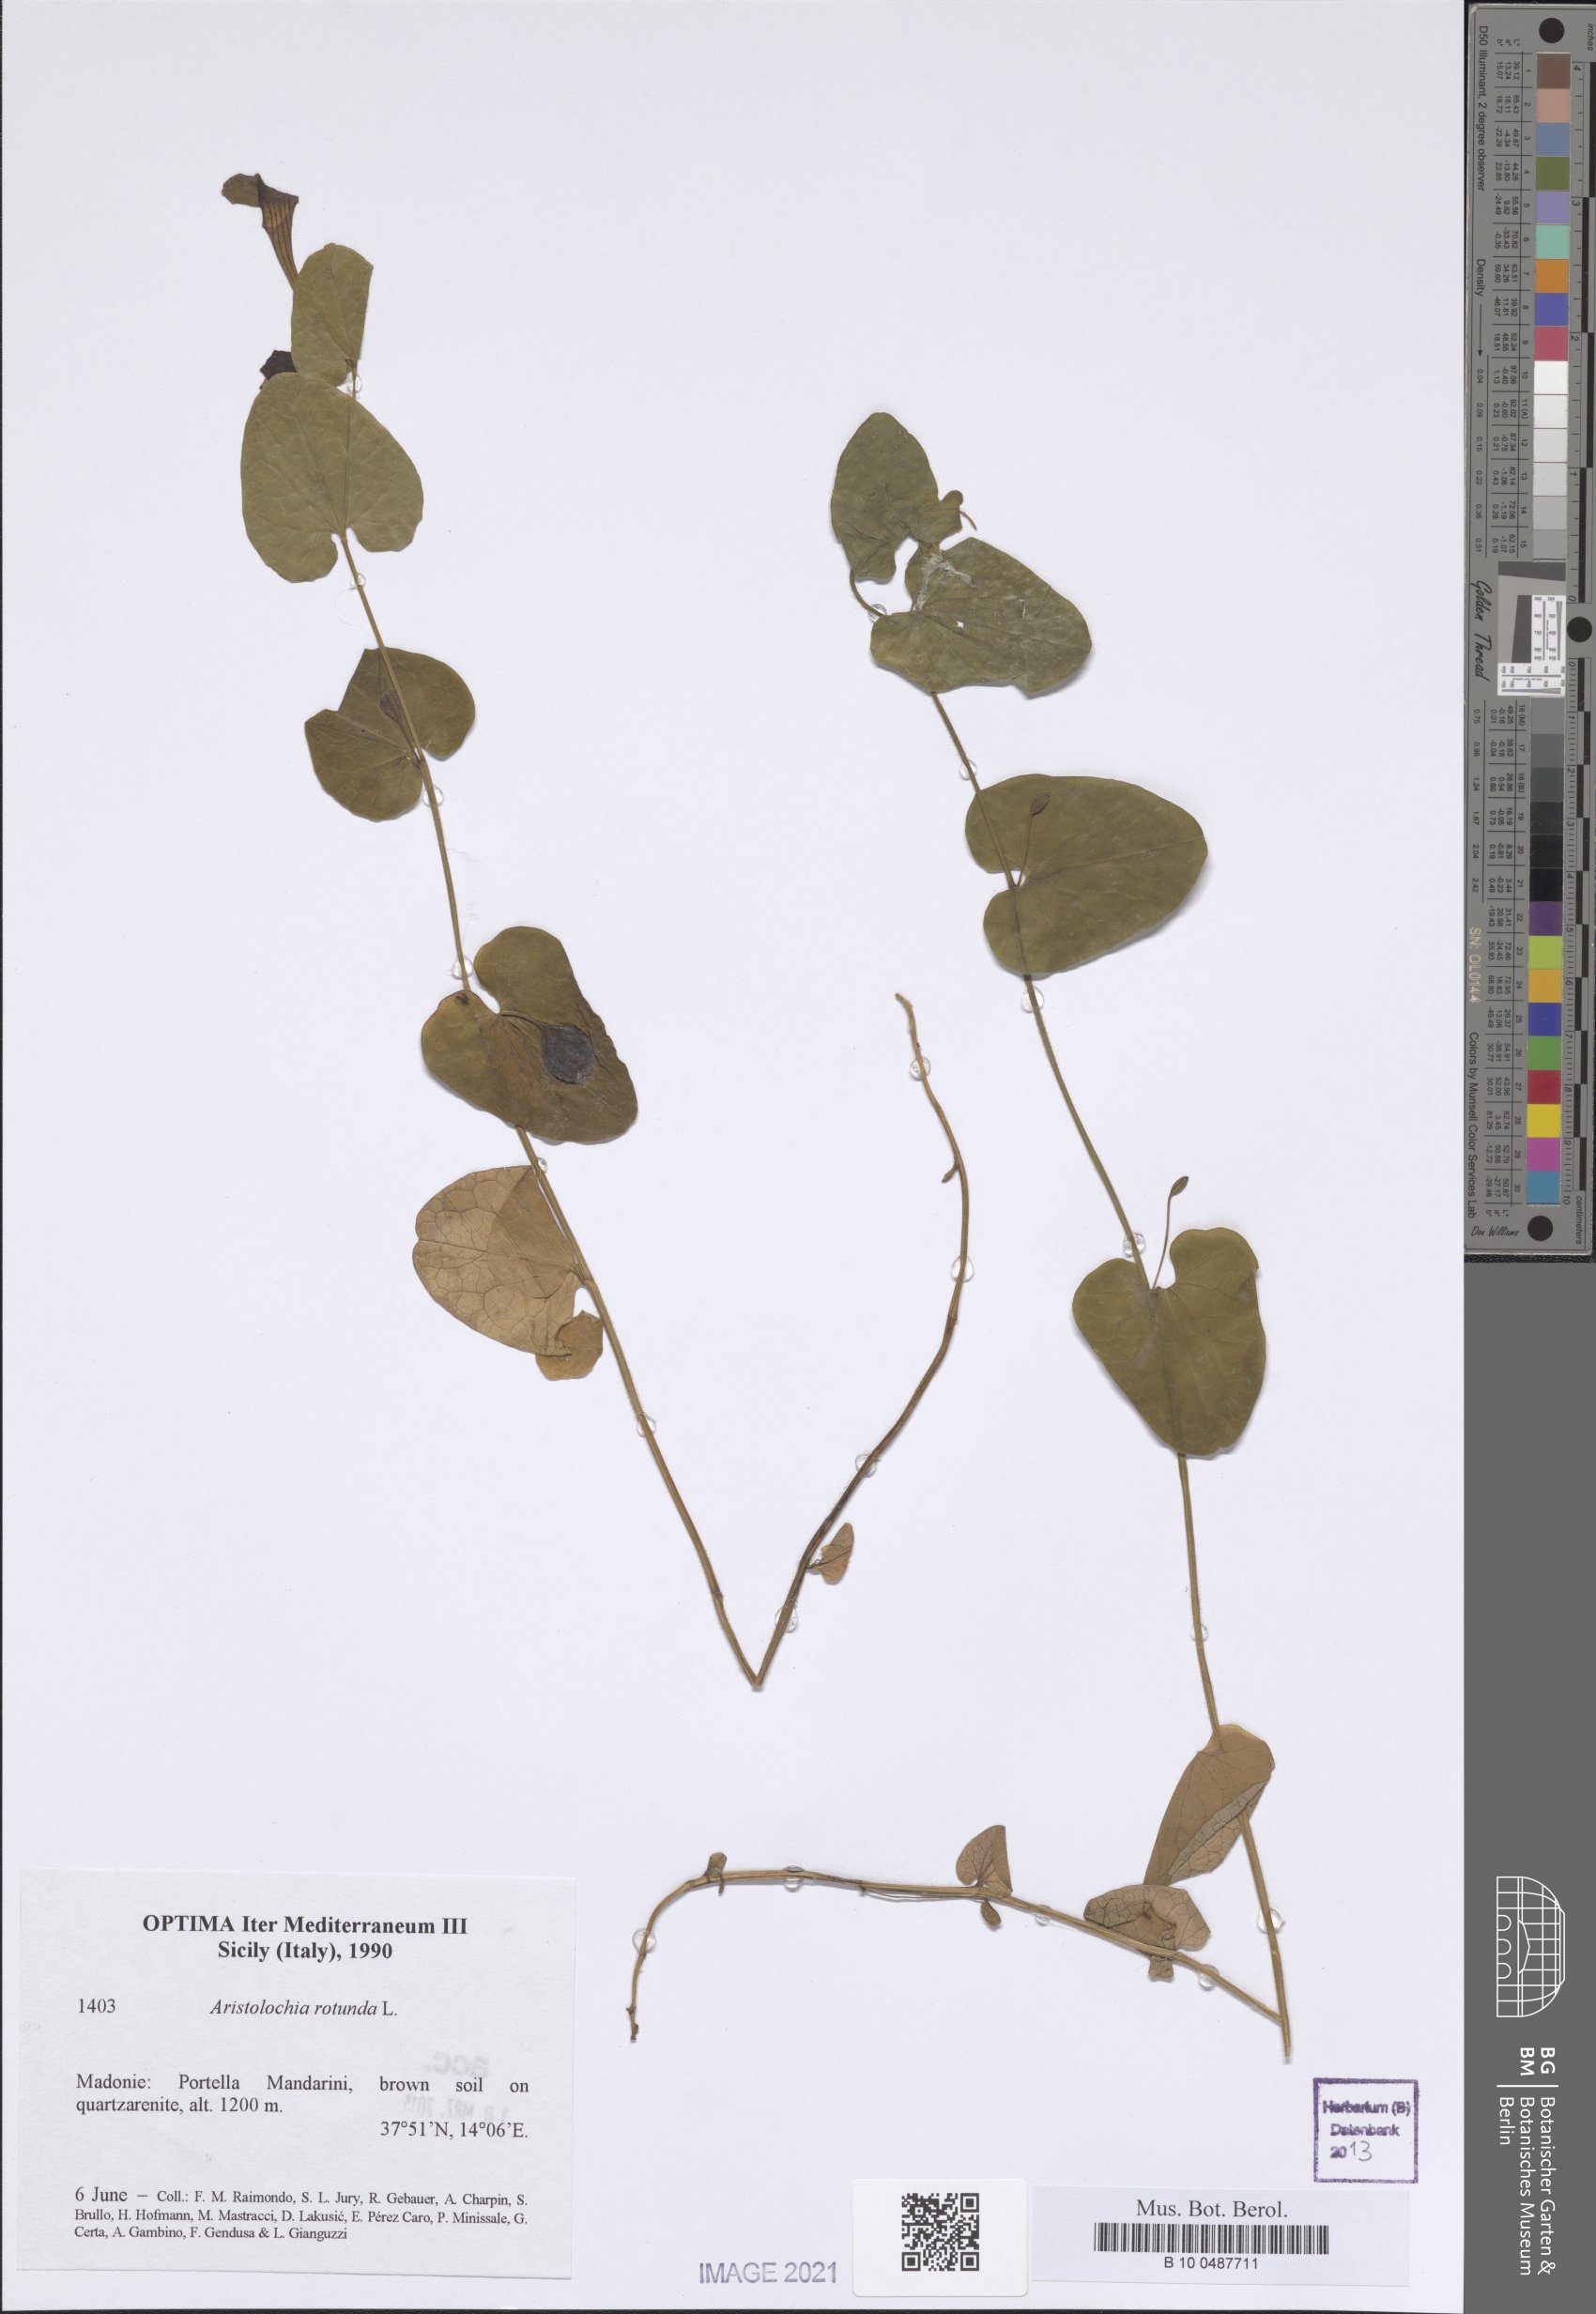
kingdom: Plantae
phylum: Tracheophyta
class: Magnoliopsida
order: Piperales
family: Aristolochiaceae
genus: Aristolochia
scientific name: Aristolochia rotunda
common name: Smearwort
